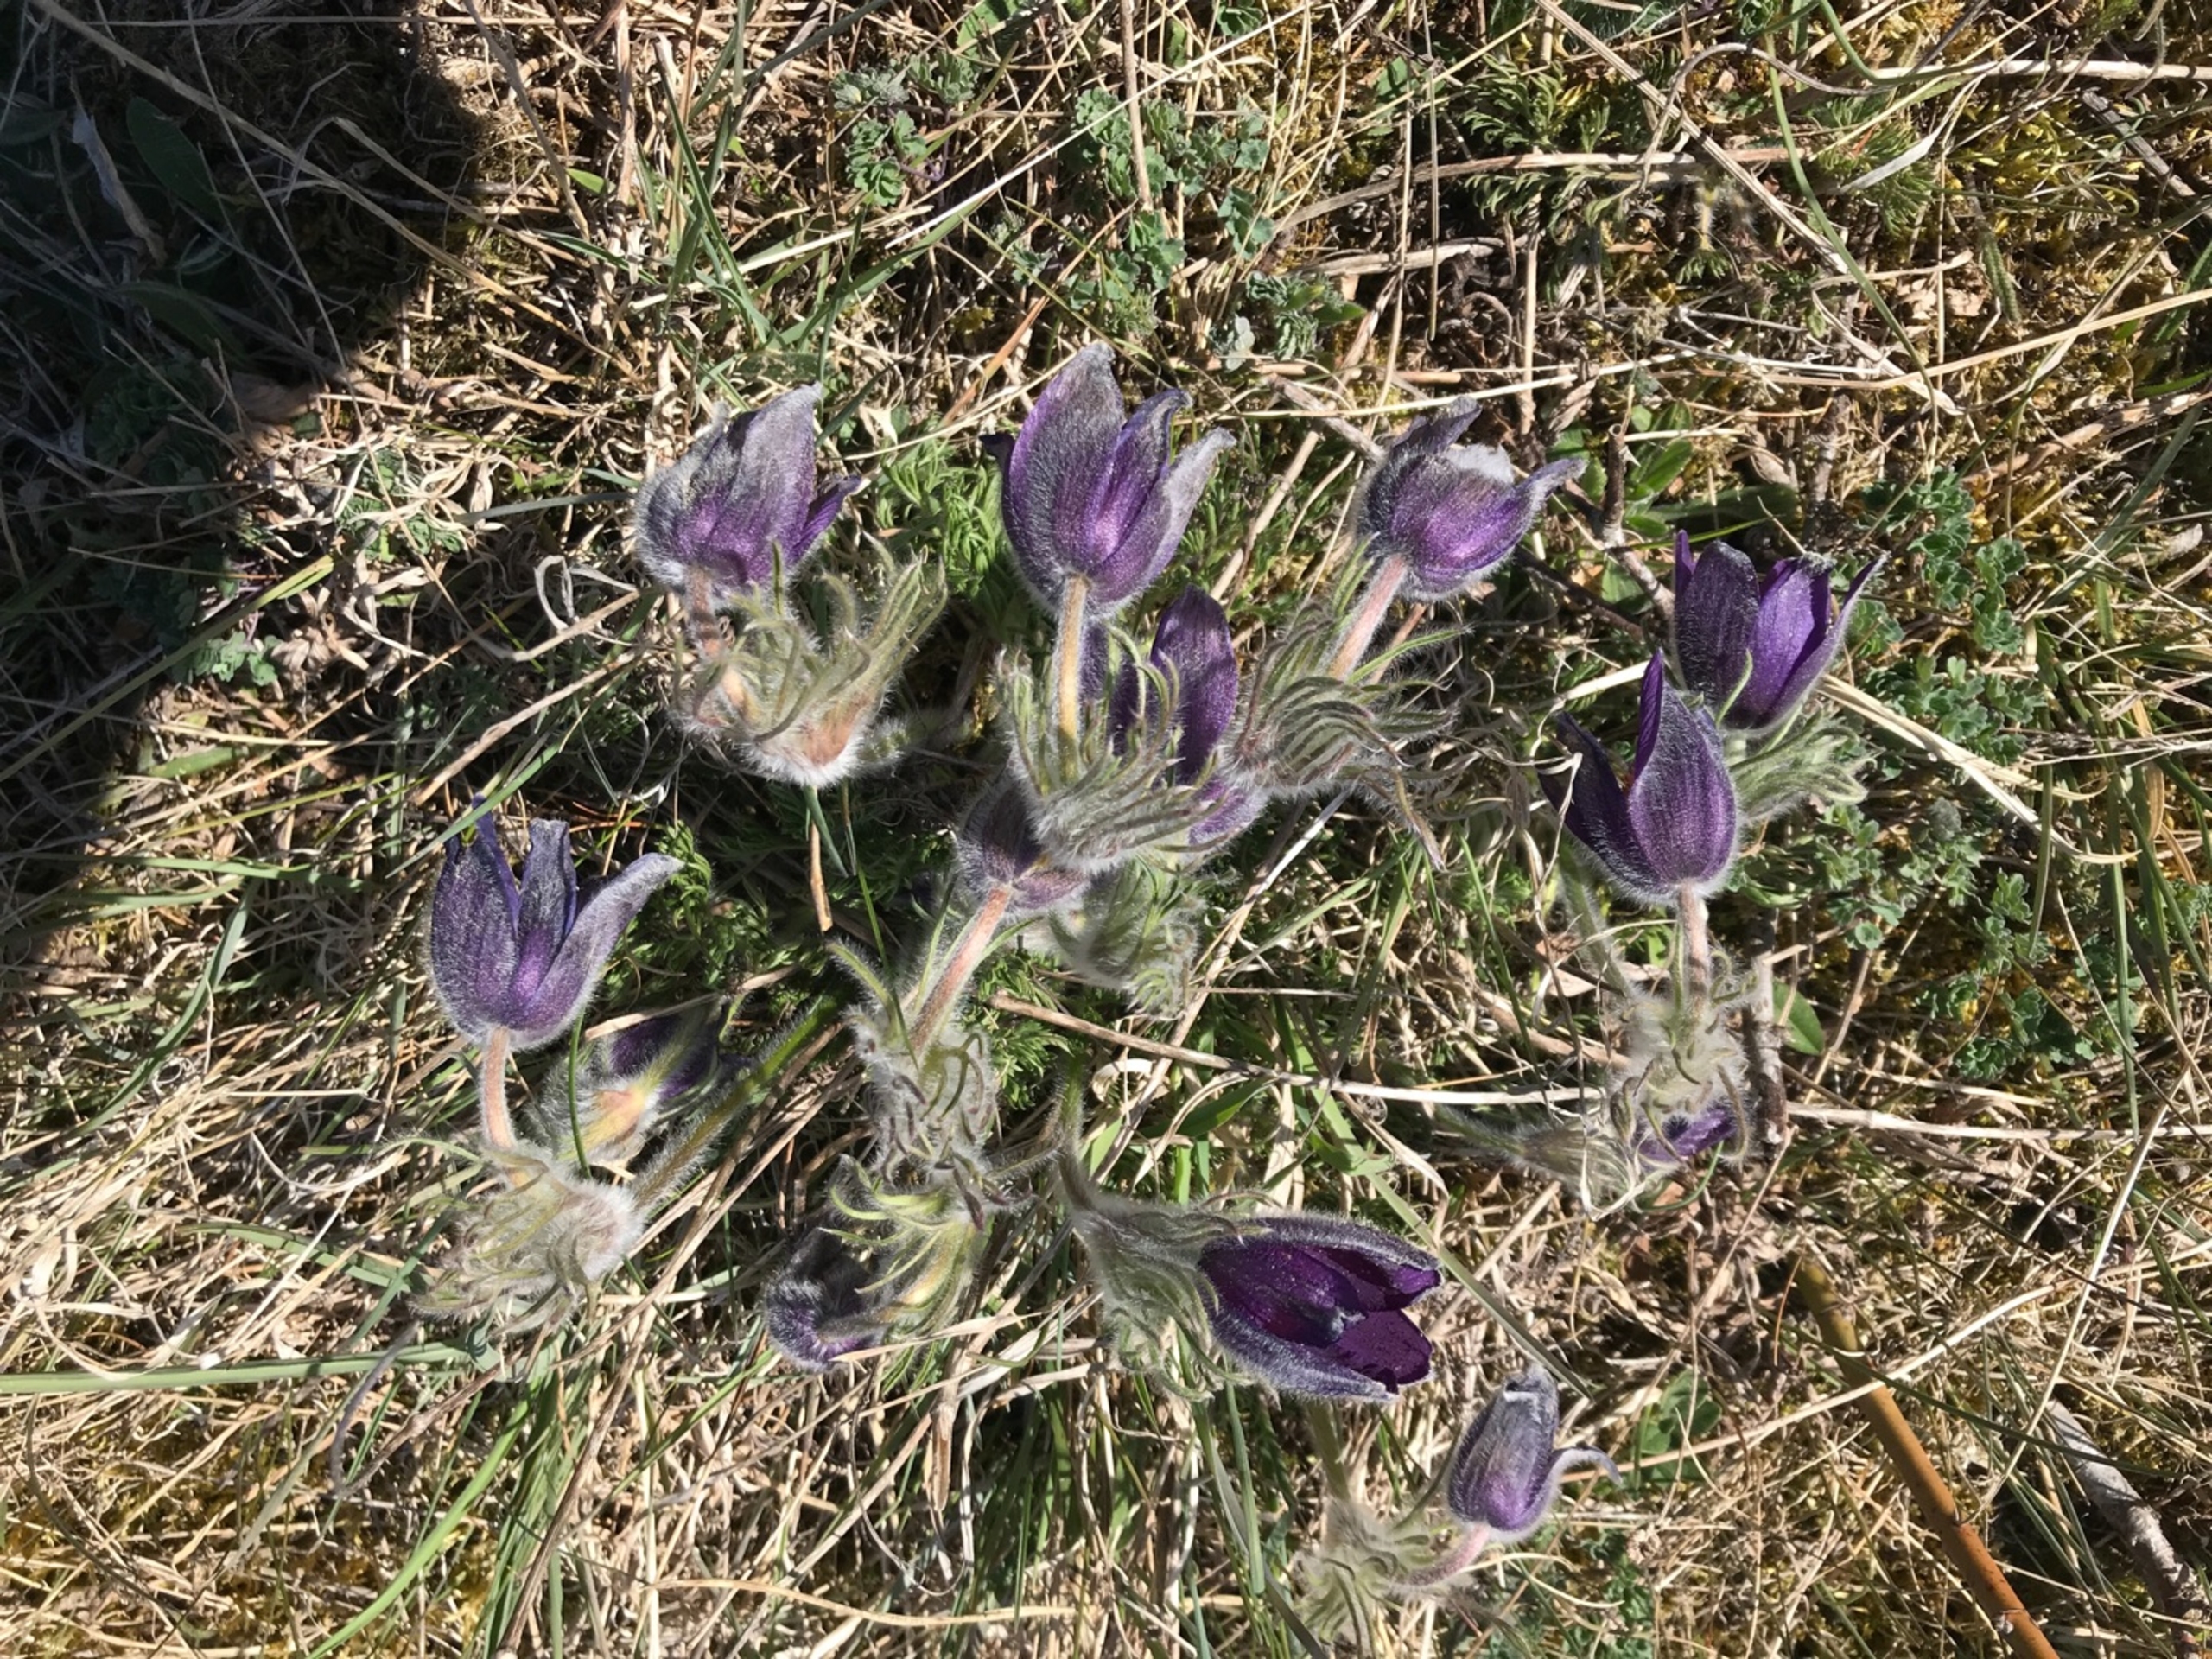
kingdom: Plantae
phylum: Tracheophyta
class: Magnoliopsida
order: Ranunculales
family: Ranunculaceae
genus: Pulsatilla
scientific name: Pulsatilla vulgaris
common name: Opret kobjælde
